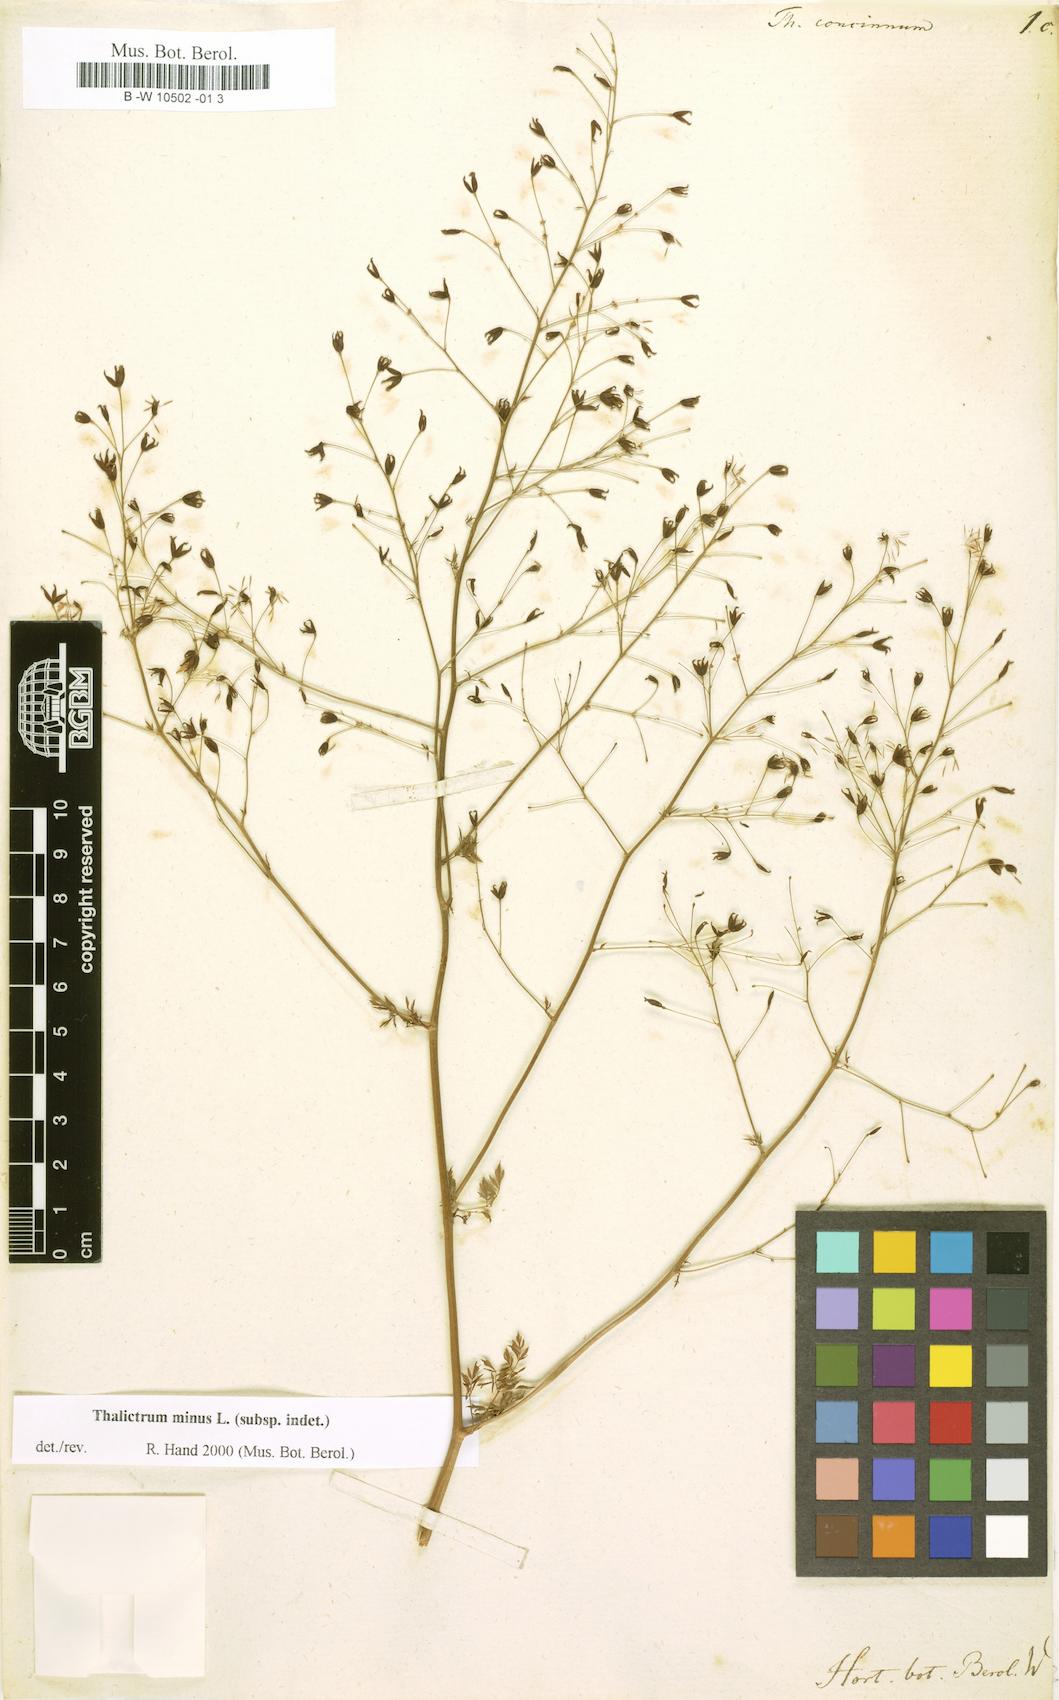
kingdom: Plantae
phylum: Tracheophyta
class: Magnoliopsida
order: Ranunculales
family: Ranunculaceae
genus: Thalictrum
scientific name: Thalictrum minus
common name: Lesser meadow-rue
